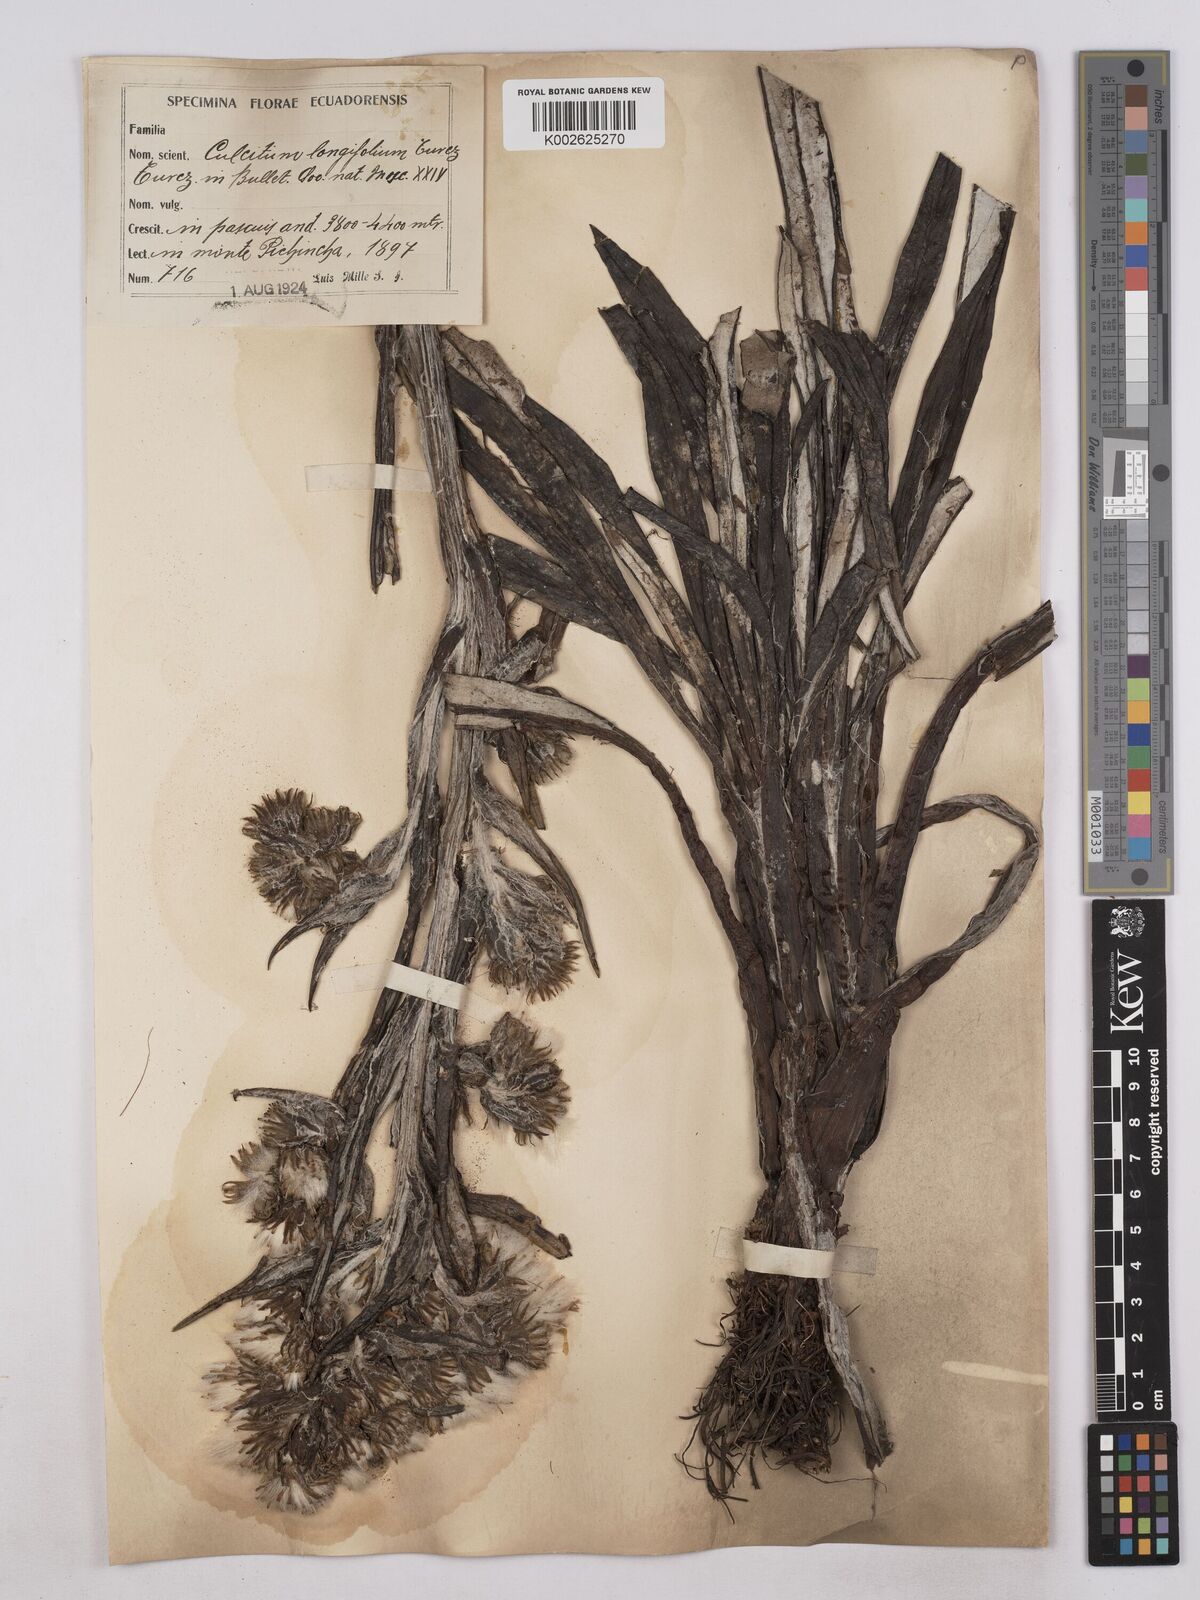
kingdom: Plantae
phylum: Tracheophyta
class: Magnoliopsida
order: Asterales
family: Asteraceae
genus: Senecio
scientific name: Senecio comosus
